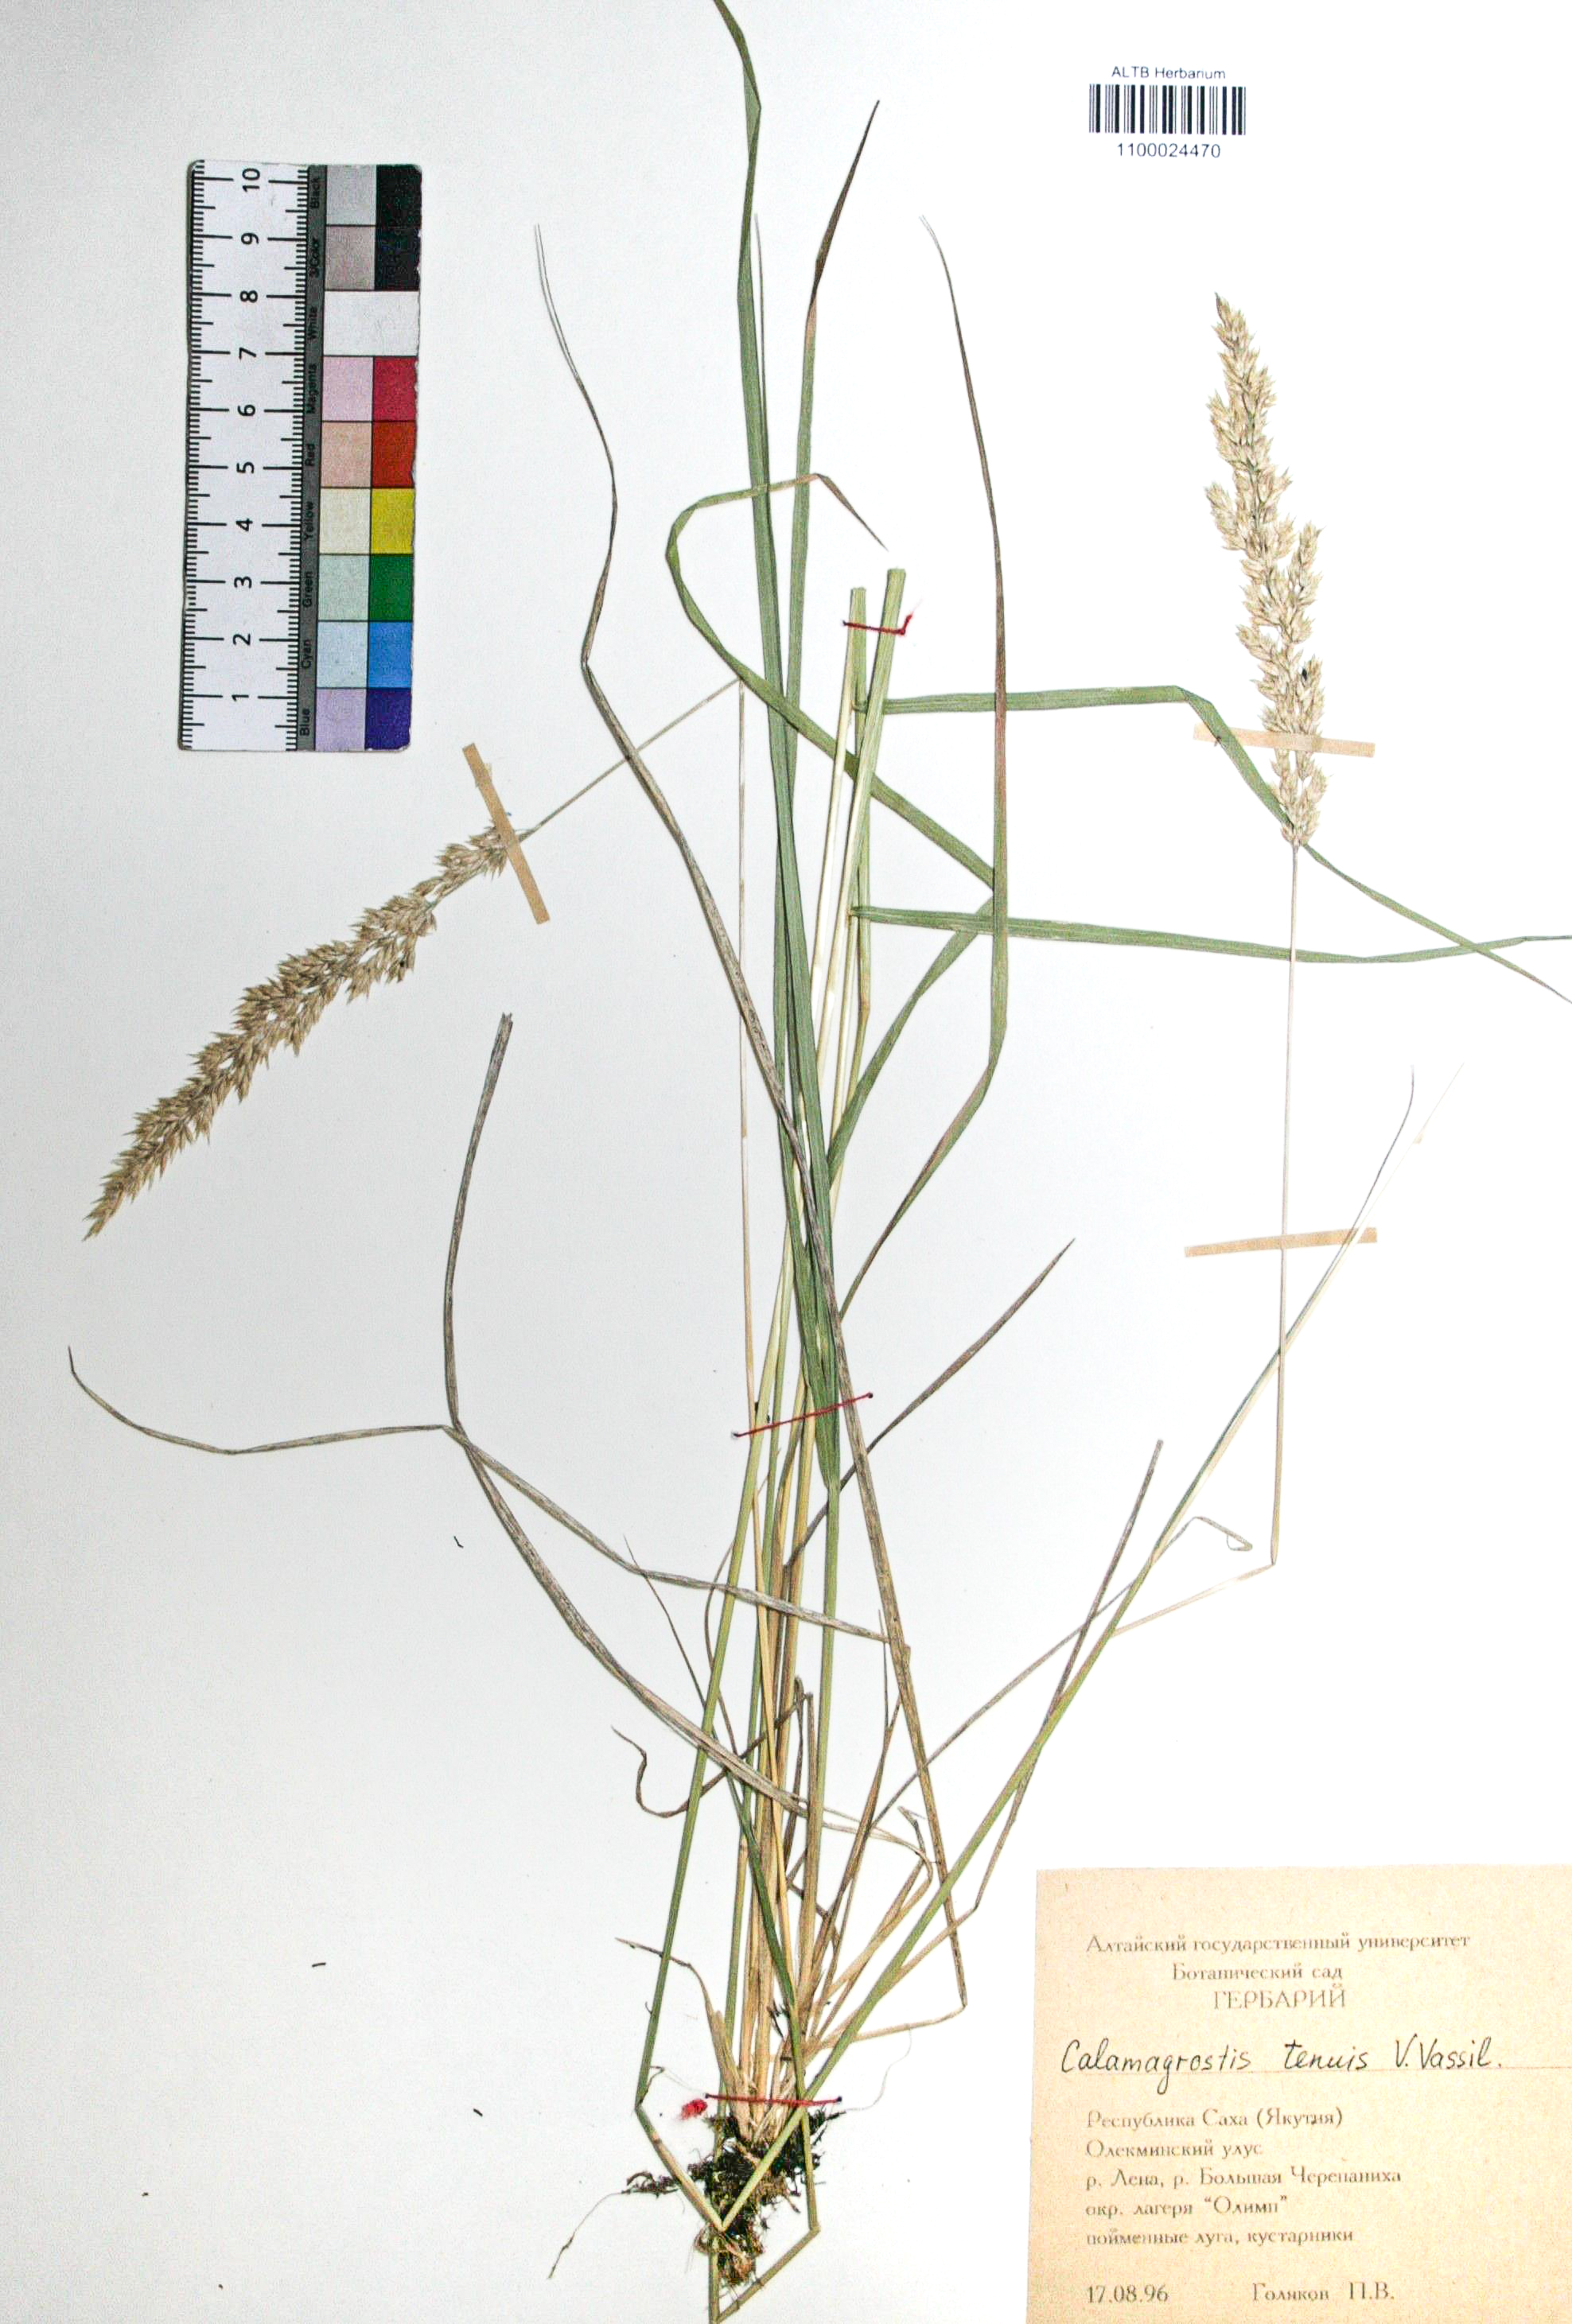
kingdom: Plantae
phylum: Tracheophyta
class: Liliopsida
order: Poales
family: Poaceae
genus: Calamagrostis
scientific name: Calamagrostis angustifolia
